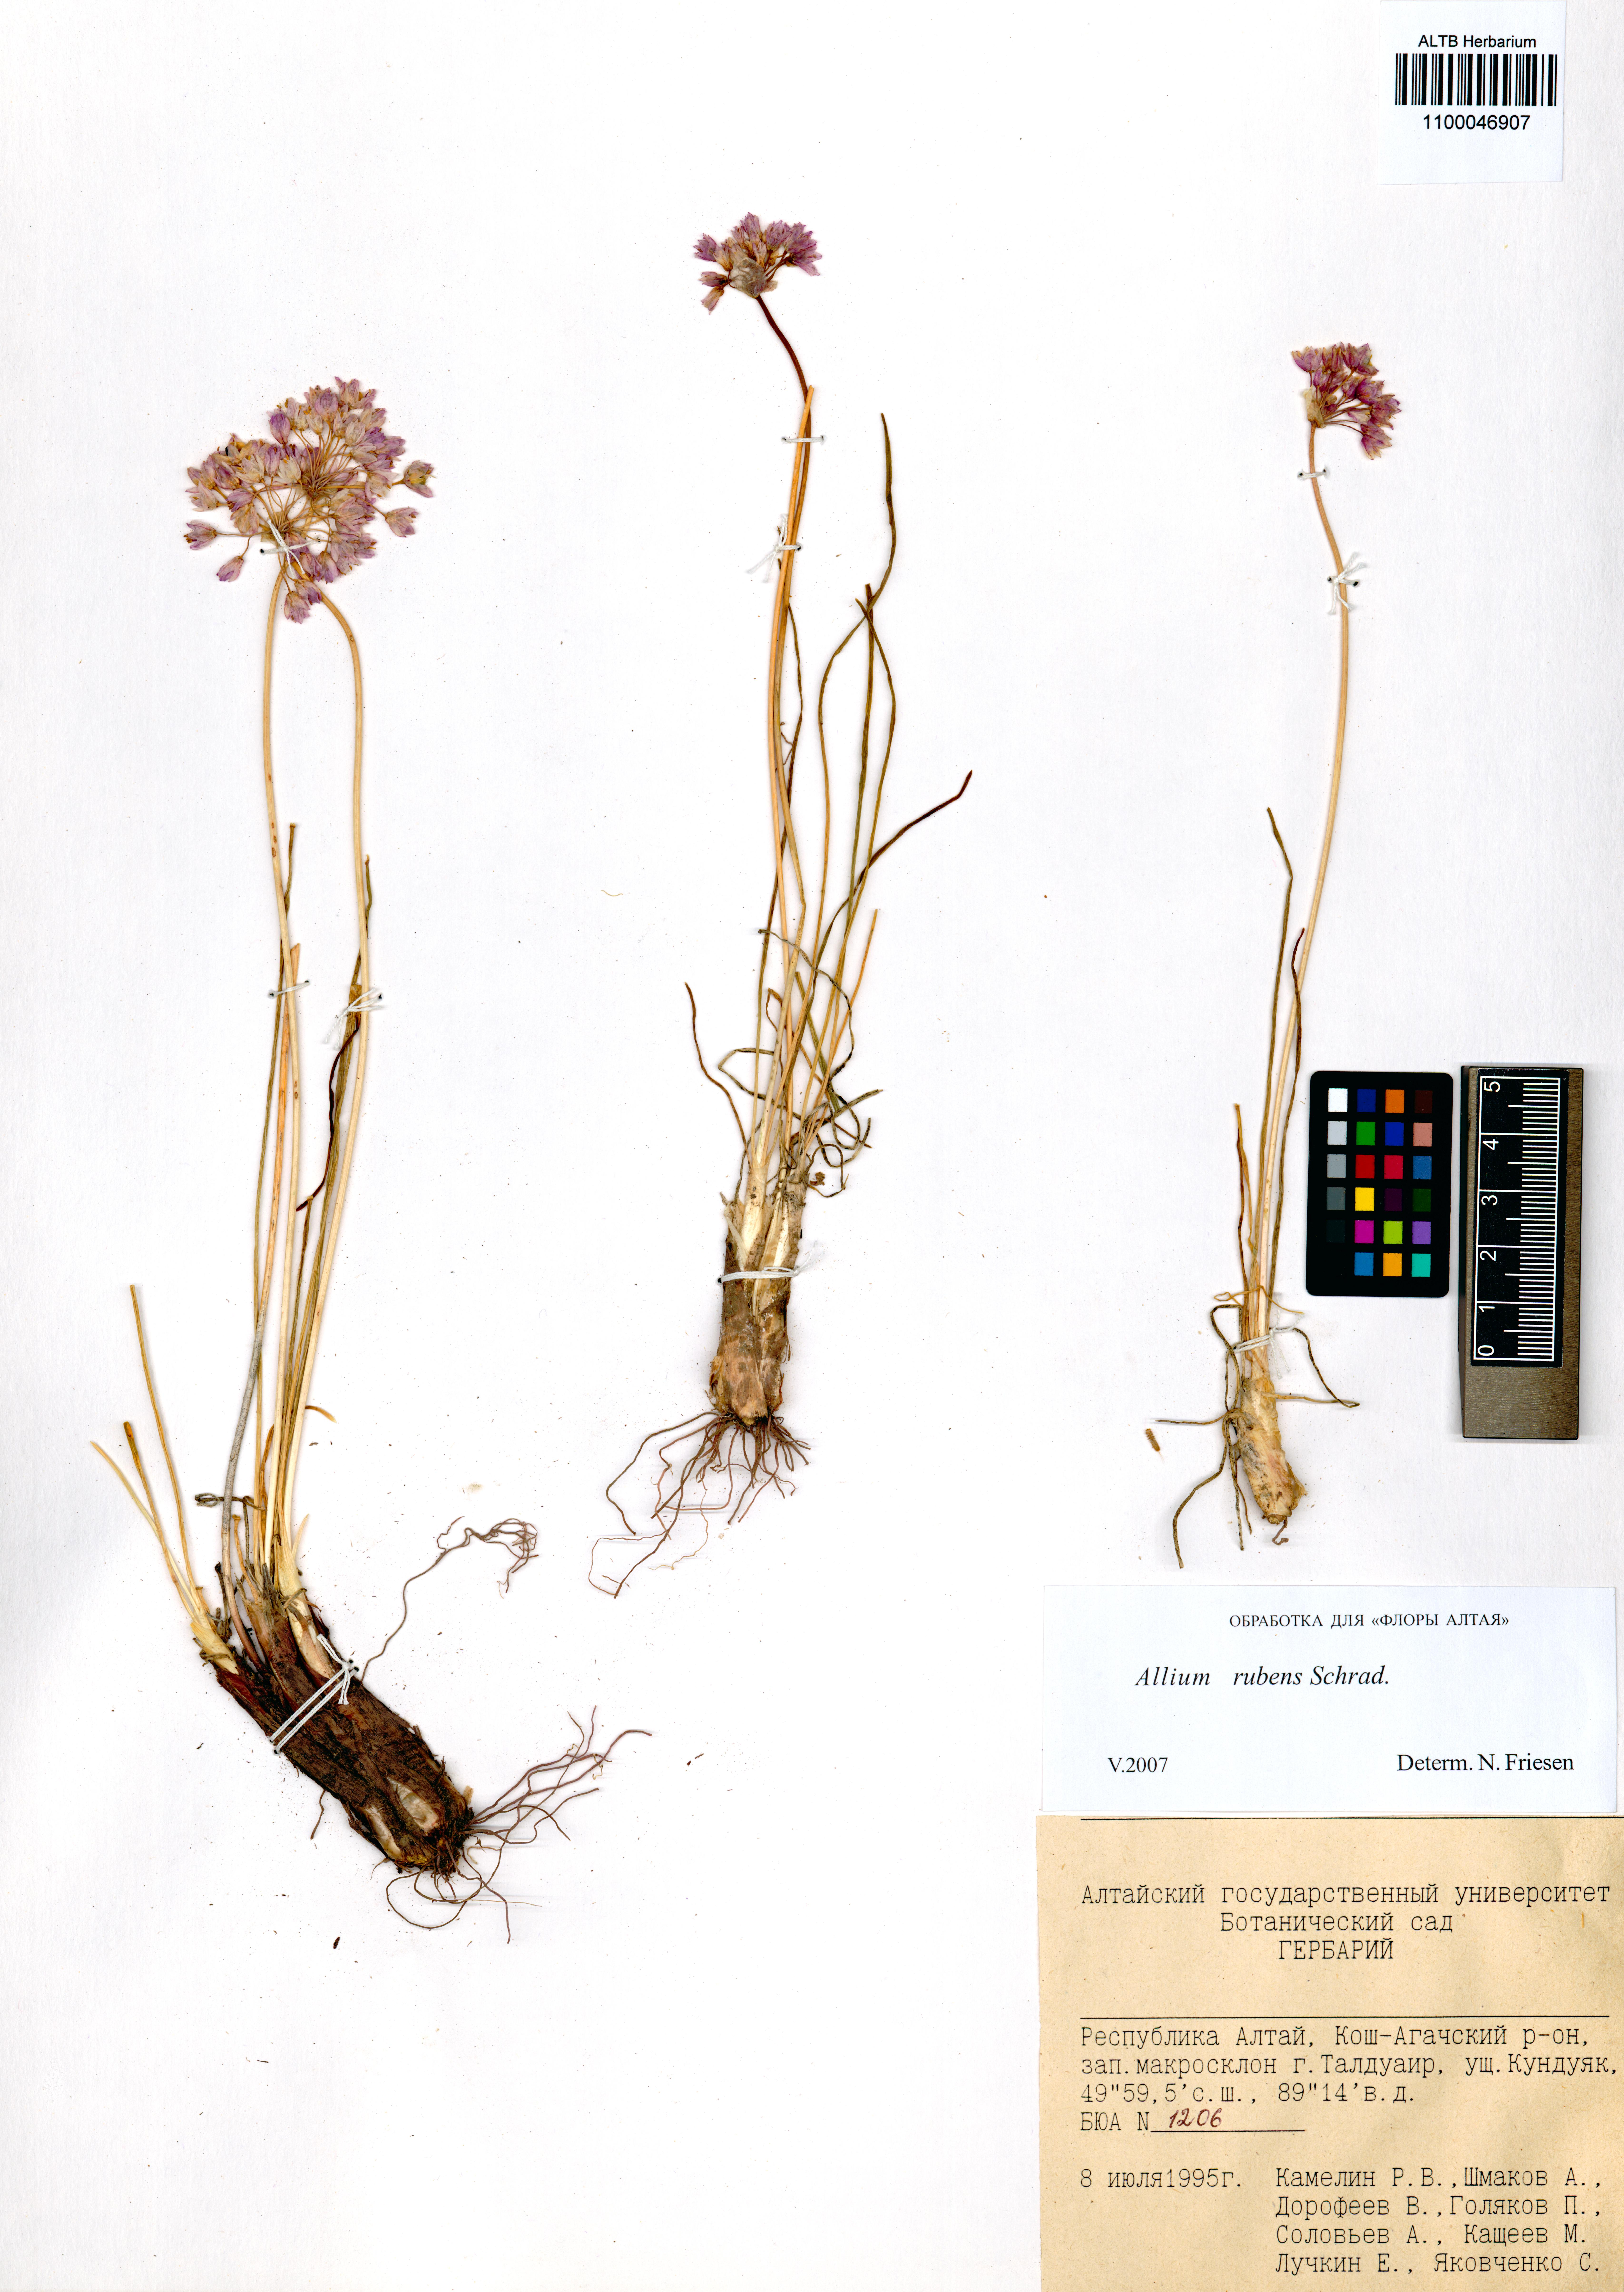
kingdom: Plantae
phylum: Tracheophyta
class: Liliopsida
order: Asparagales
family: Amaryllidaceae
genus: Allium
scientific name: Allium rubens
